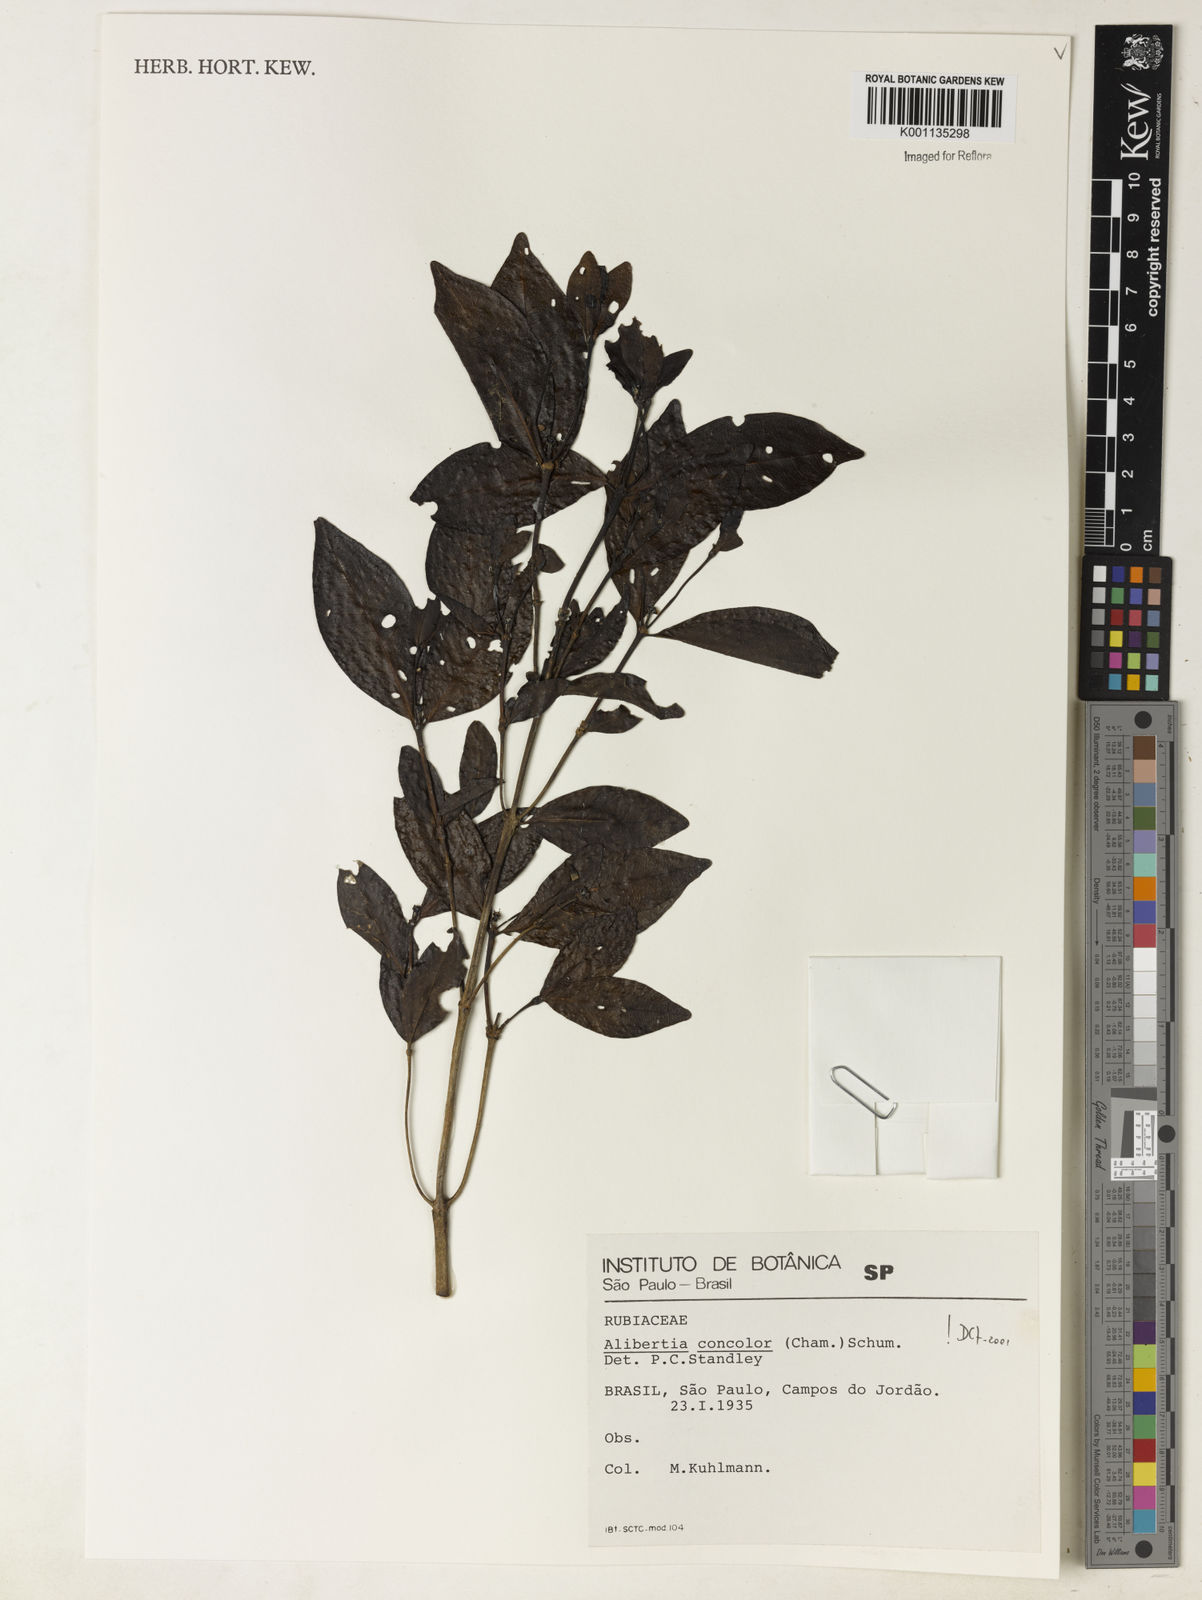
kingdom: Plantae
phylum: Tracheophyta
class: Magnoliopsida
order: Gentianales
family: Rubiaceae
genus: Cordiera
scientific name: Cordiera concolor
